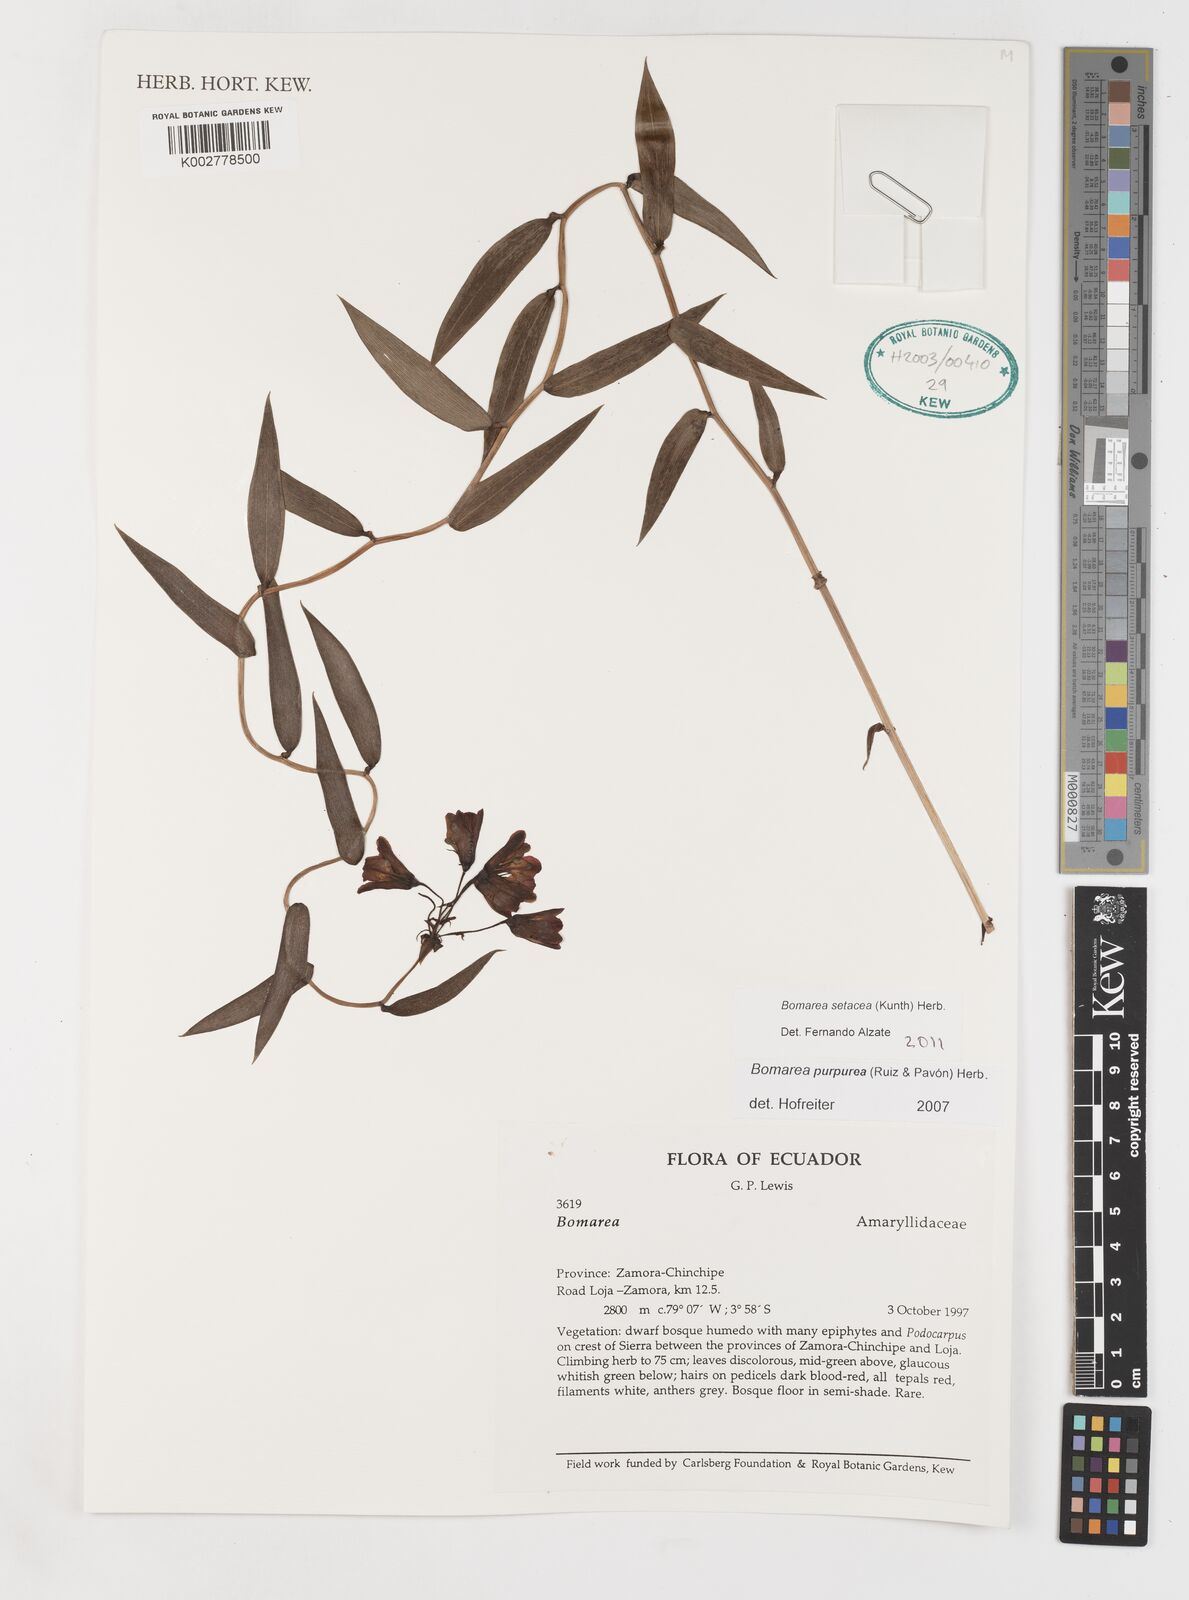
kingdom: Plantae
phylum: Tracheophyta
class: Liliopsida
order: Liliales
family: Alstroemeriaceae
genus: Bomarea
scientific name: Bomarea setacea
